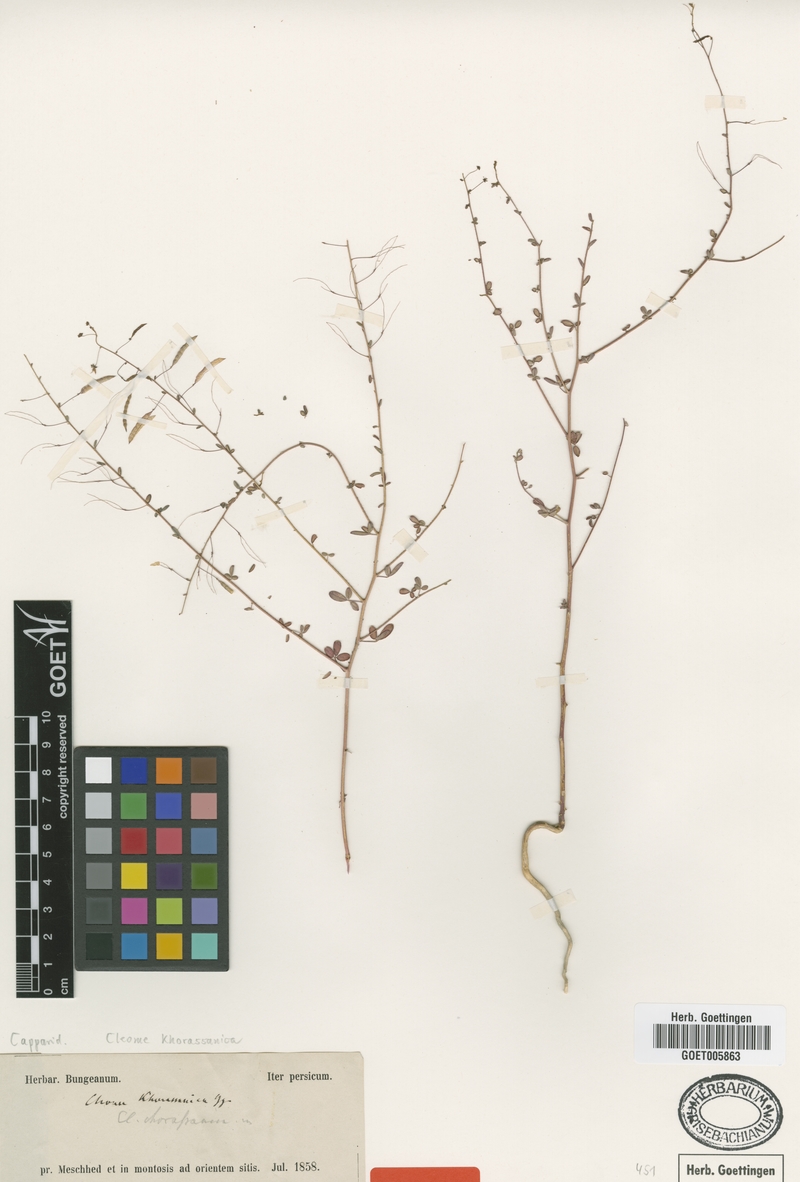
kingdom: Plantae
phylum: Tracheophyta
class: Magnoliopsida
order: Brassicales
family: Cleomaceae
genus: Cleome
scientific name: Cleome khorassanica
